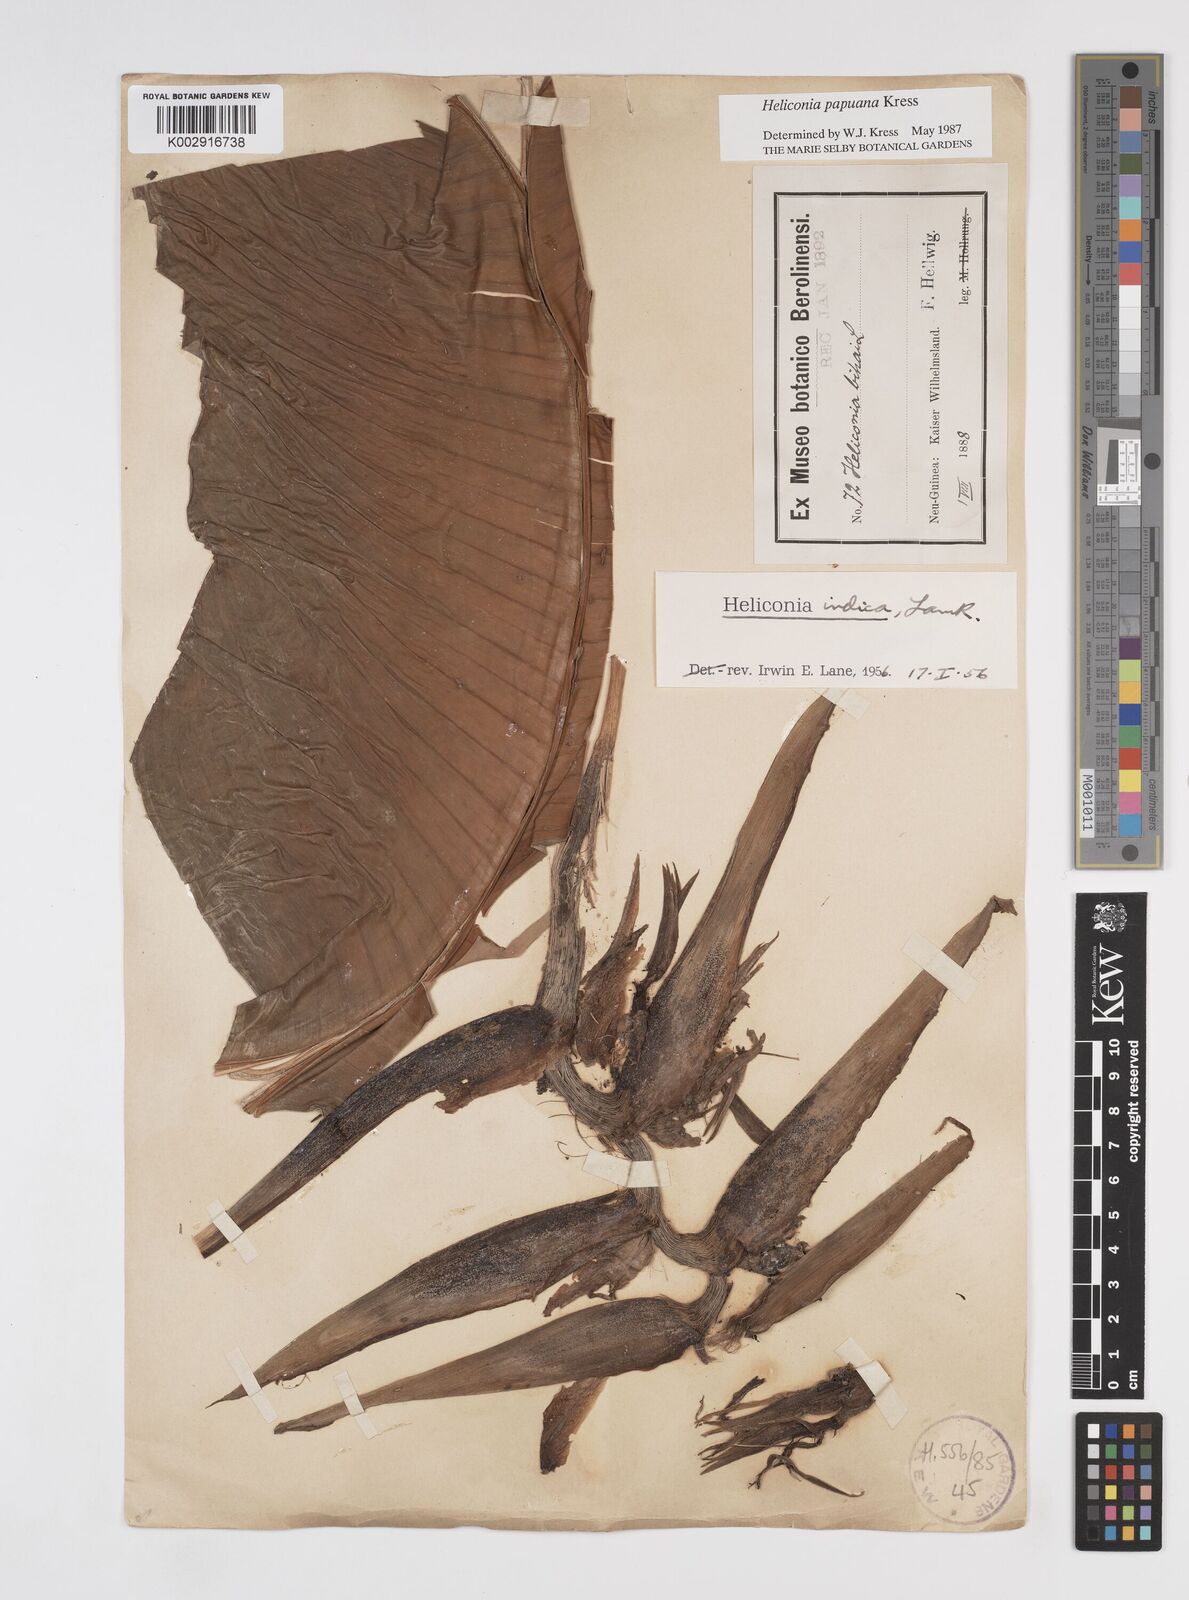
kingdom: Plantae
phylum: Tracheophyta
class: Liliopsida
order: Zingiberales
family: Heliconiaceae
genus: Heliconia
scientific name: Heliconia papuana
